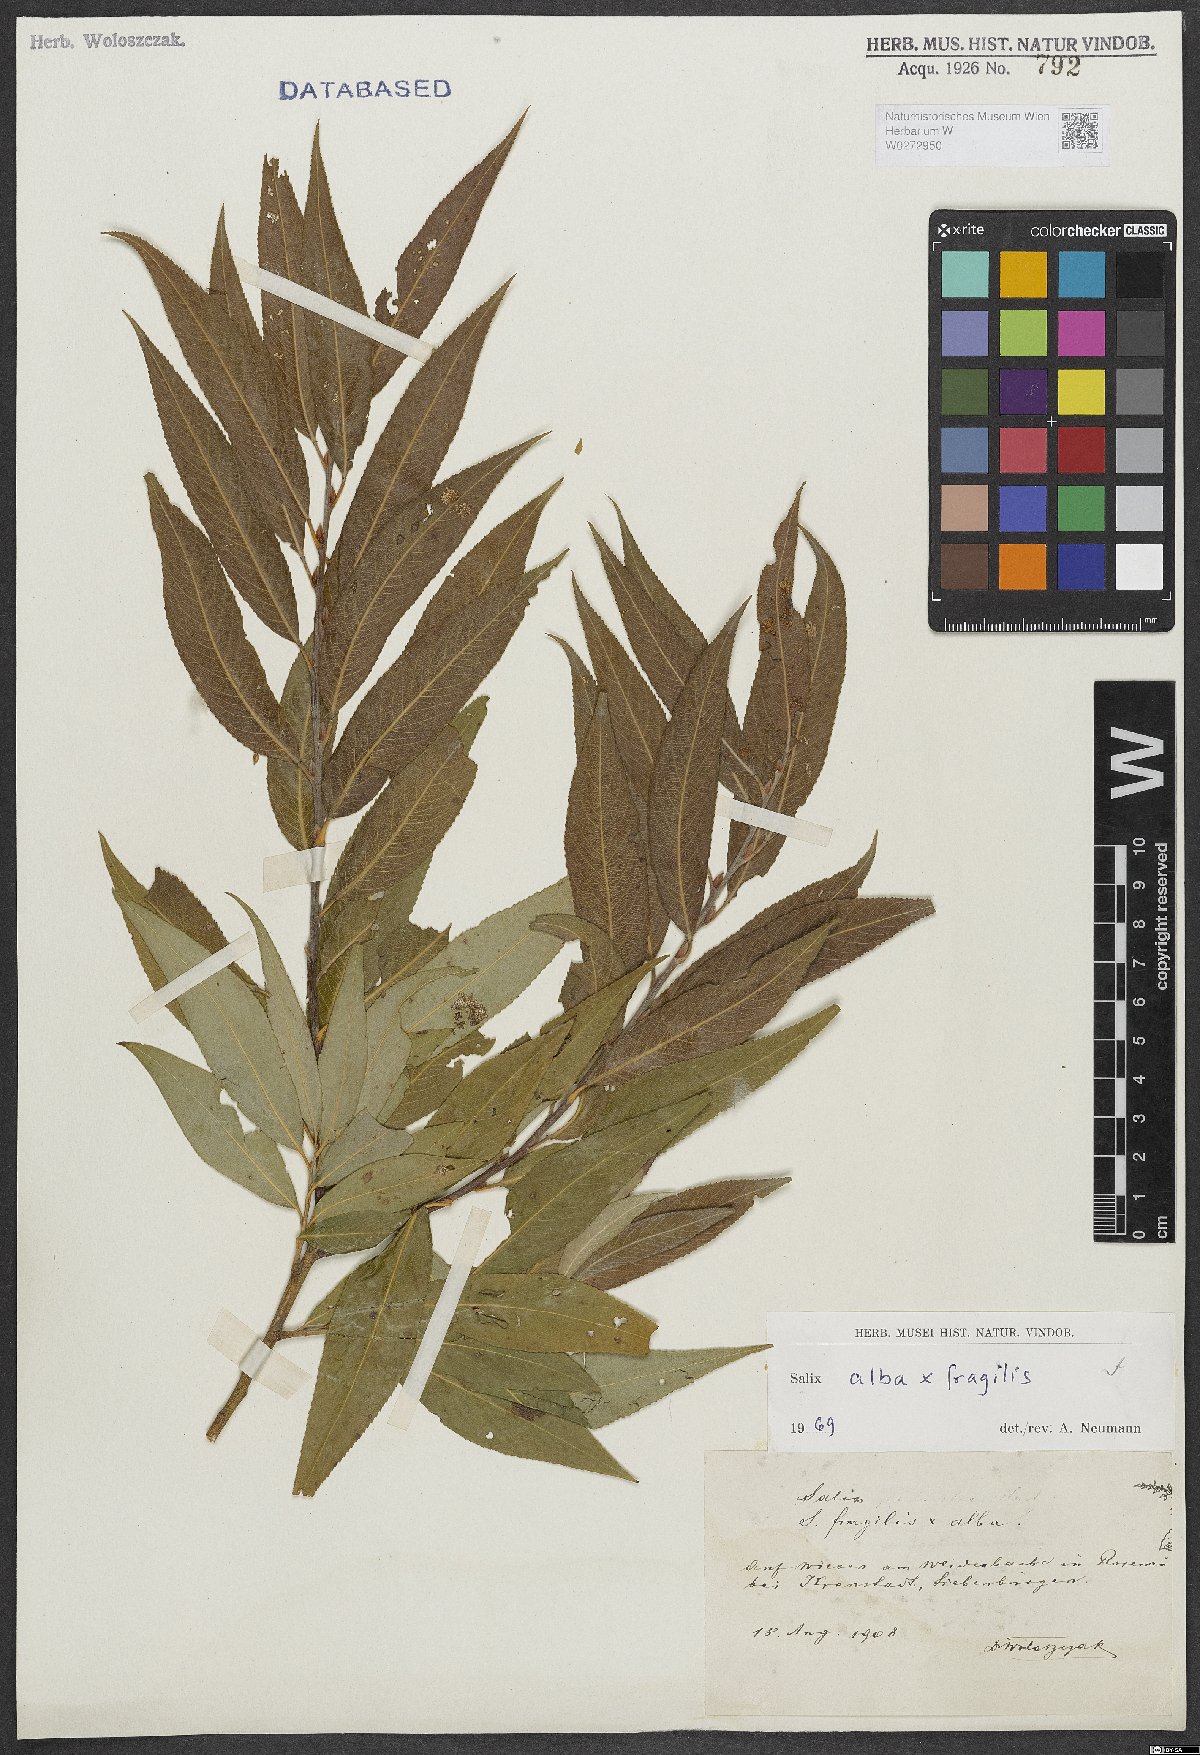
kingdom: Plantae
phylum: Tracheophyta
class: Magnoliopsida
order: Malpighiales
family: Salicaceae
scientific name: Salicaceae
